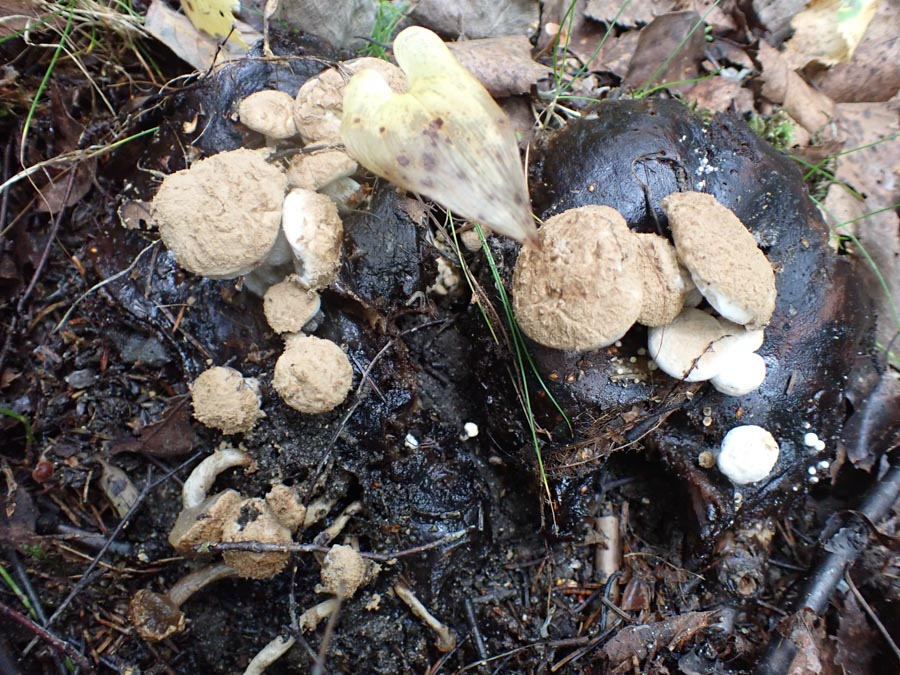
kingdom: Fungi
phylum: Basidiomycota
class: Agaricomycetes
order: Agaricales
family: Lyophyllaceae
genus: Asterophora
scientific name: Asterophora lycoperdoides
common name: brunpudret snyltehat
